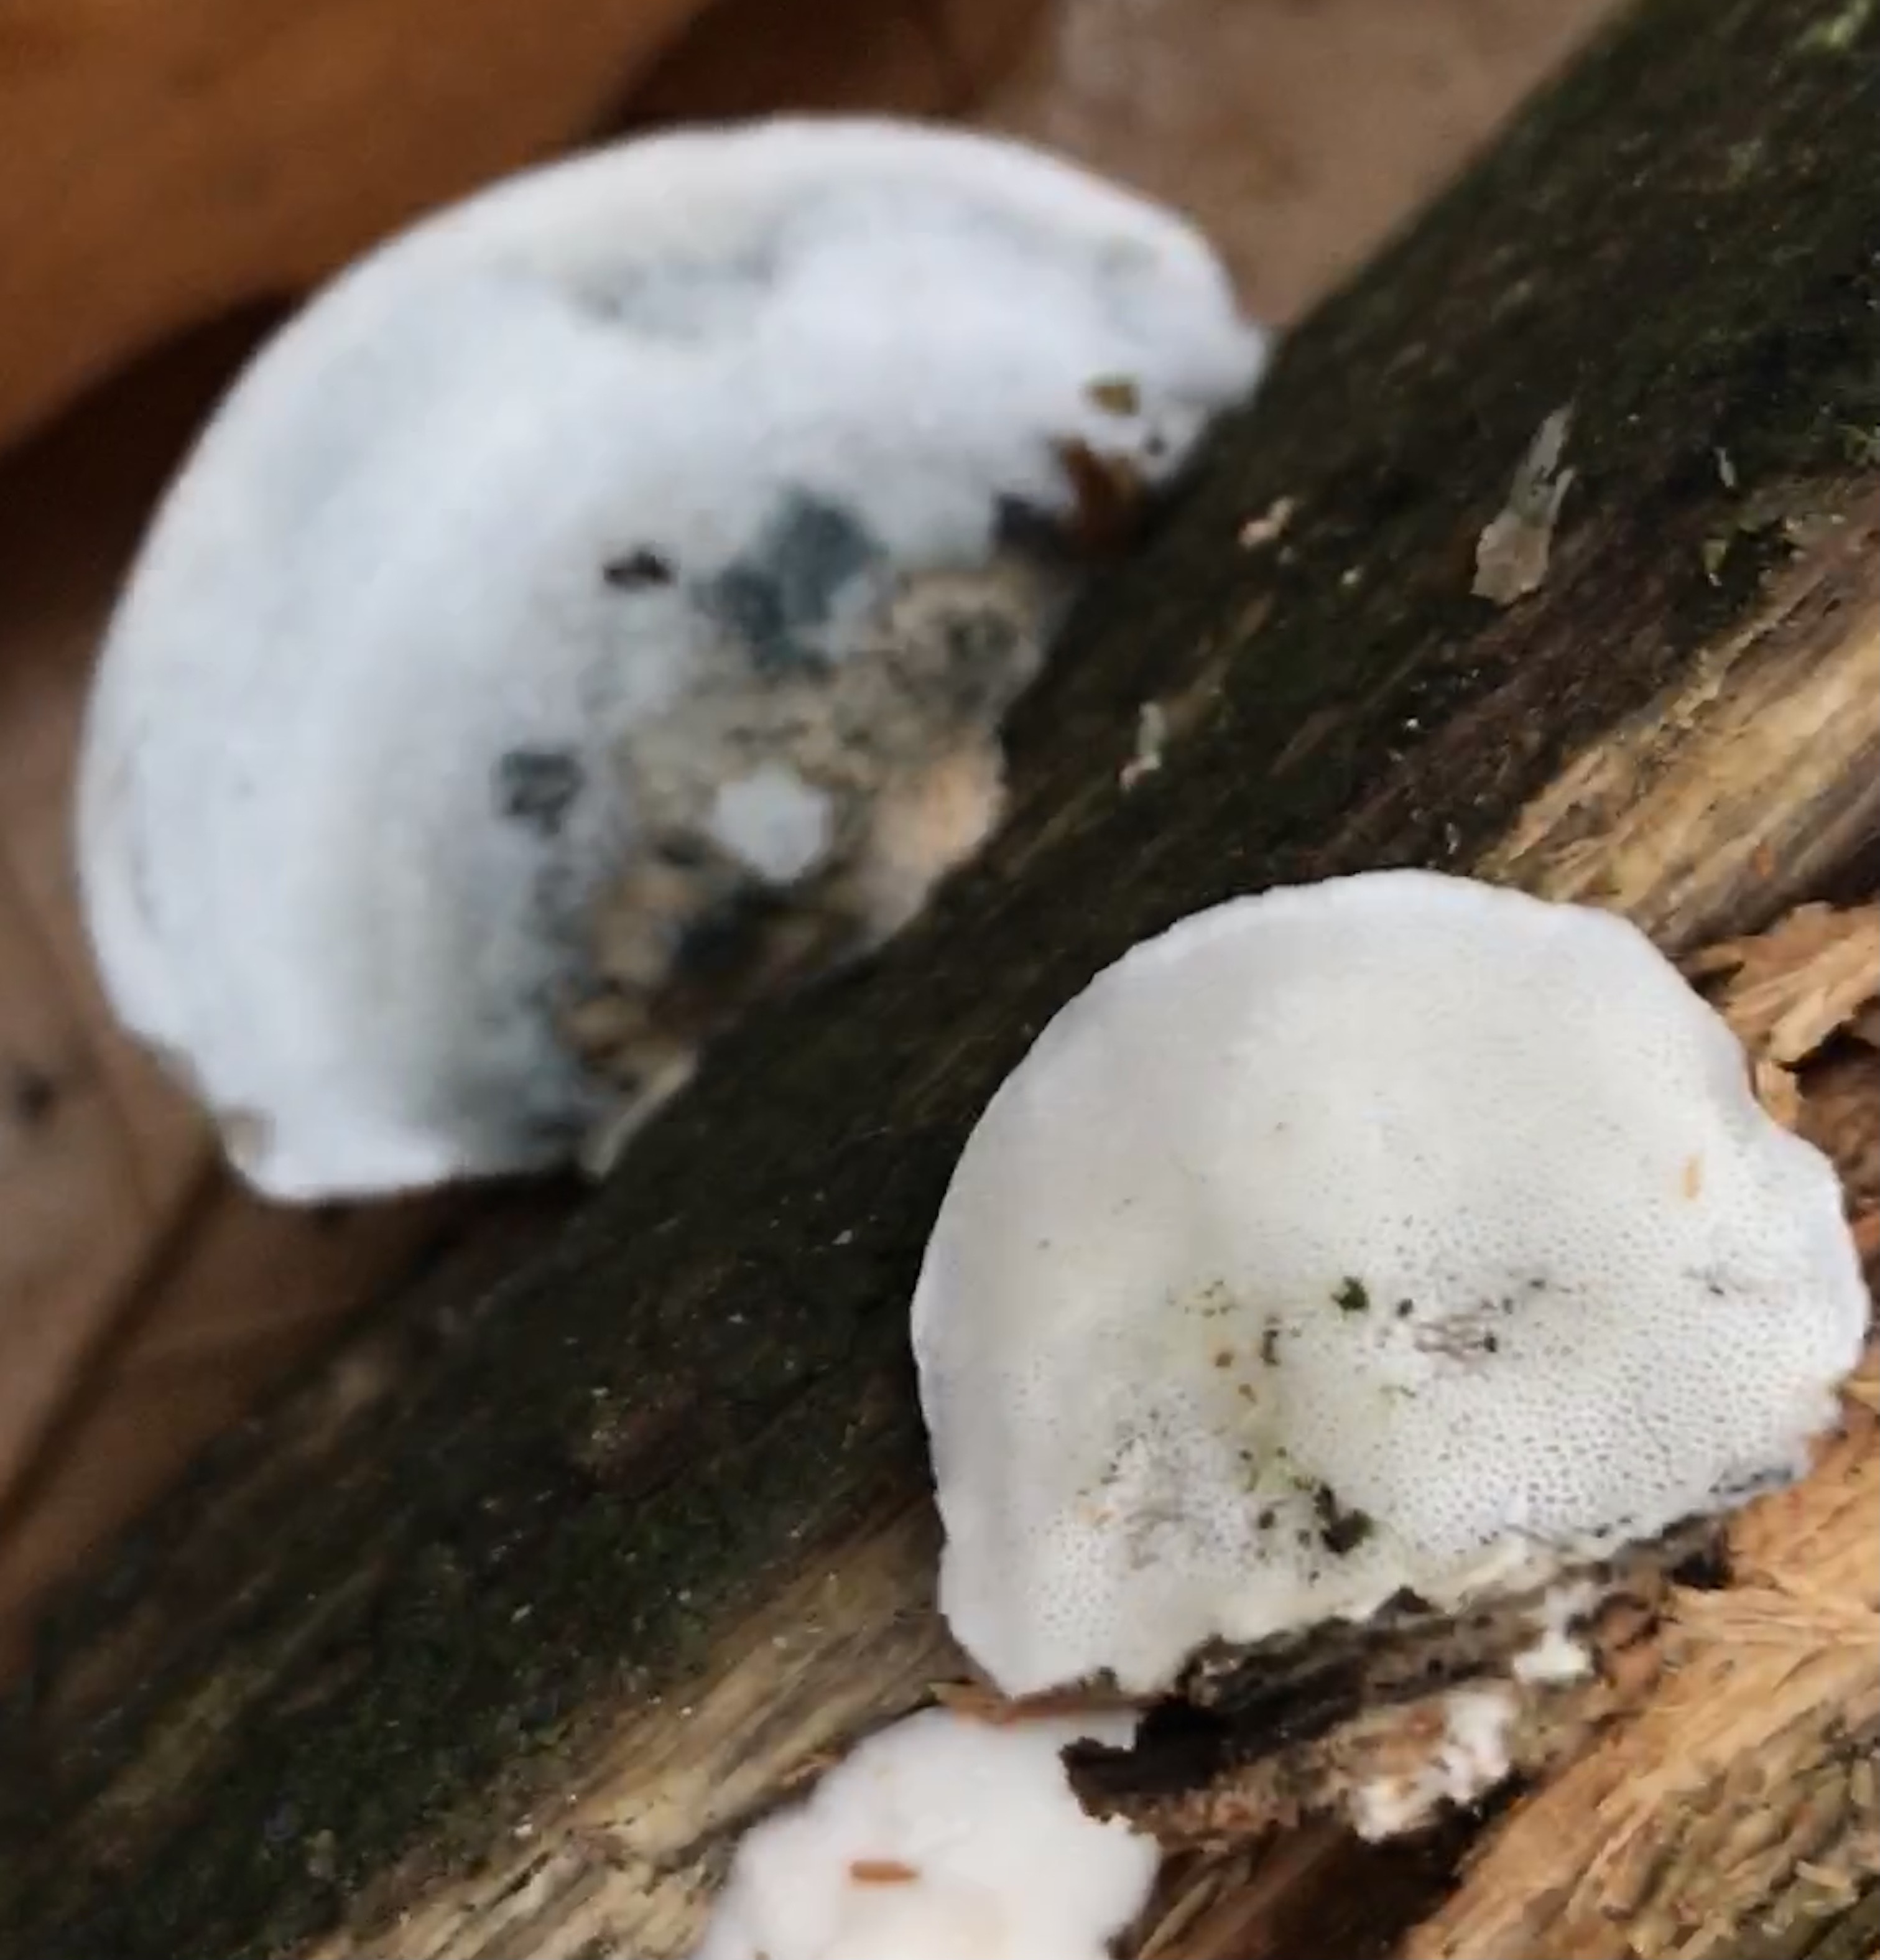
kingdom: Fungi
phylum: Basidiomycota
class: Agaricomycetes
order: Polyporales
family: Polyporaceae
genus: Cyanosporus
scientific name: Cyanosporus alni
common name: blegblå kødporesvamp
